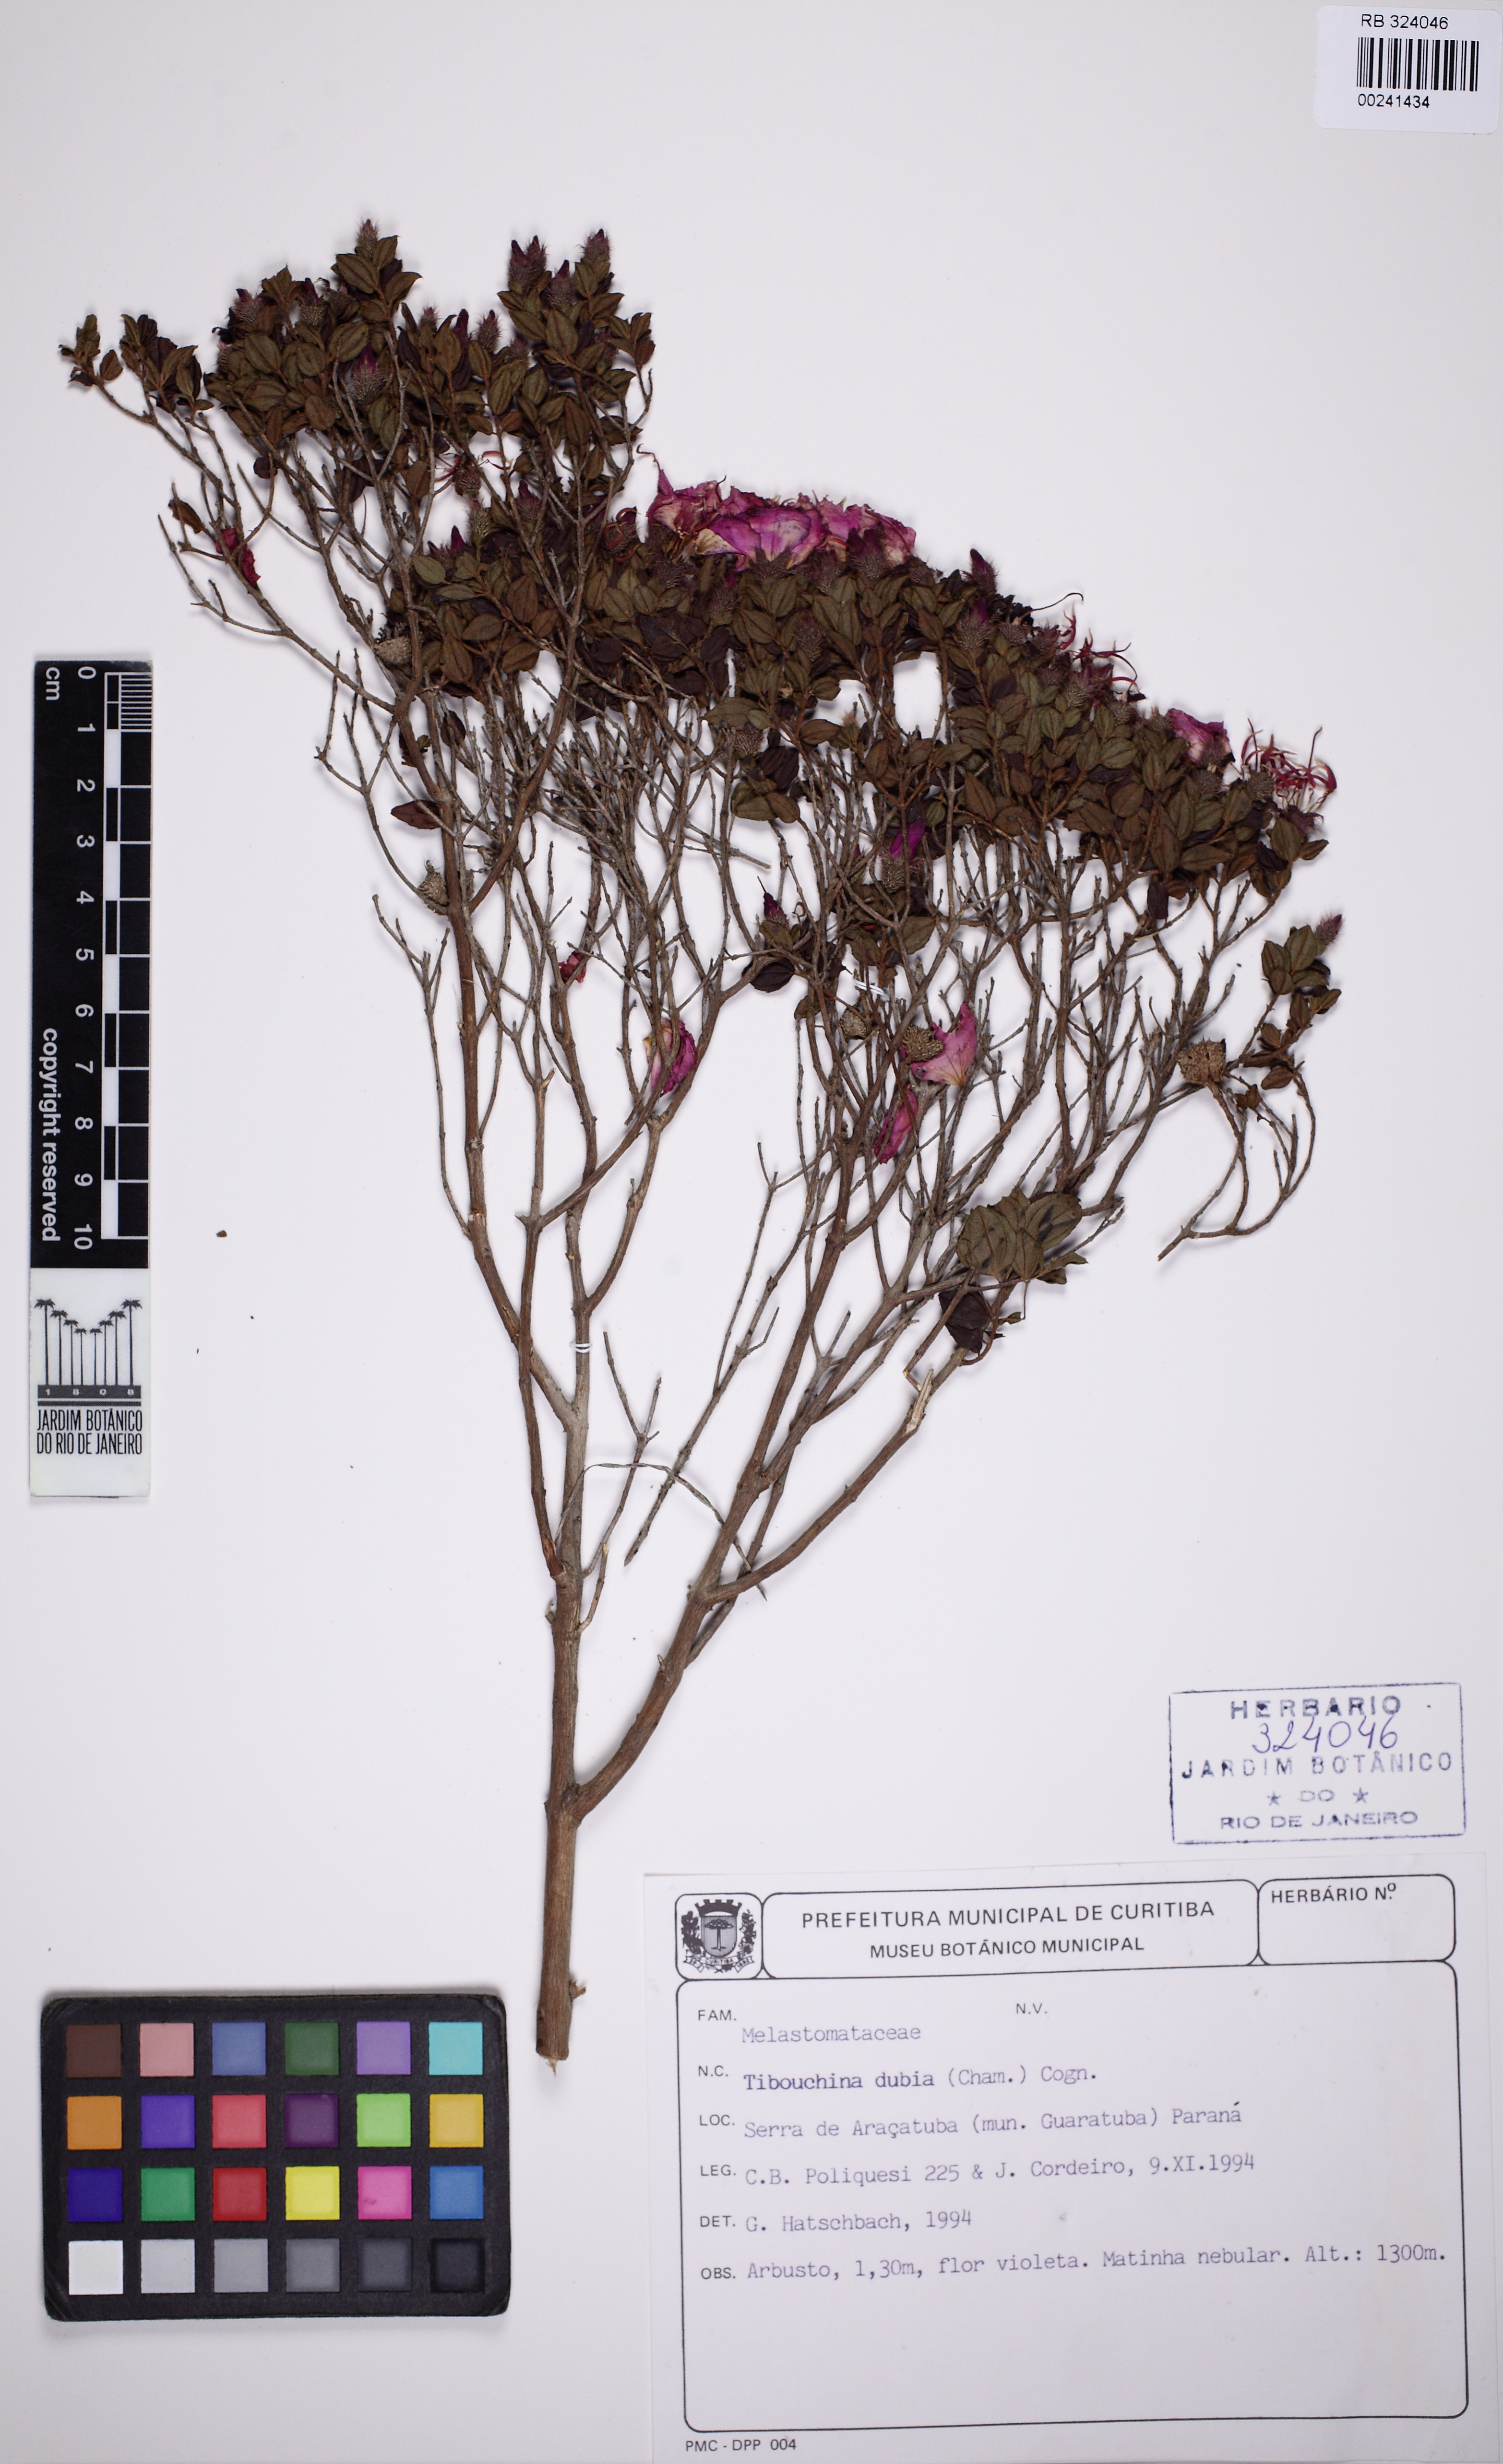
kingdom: Plantae
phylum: Tracheophyta
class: Magnoliopsida
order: Myrtales
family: Melastomataceae
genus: Pleroma
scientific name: Pleroma dubium
